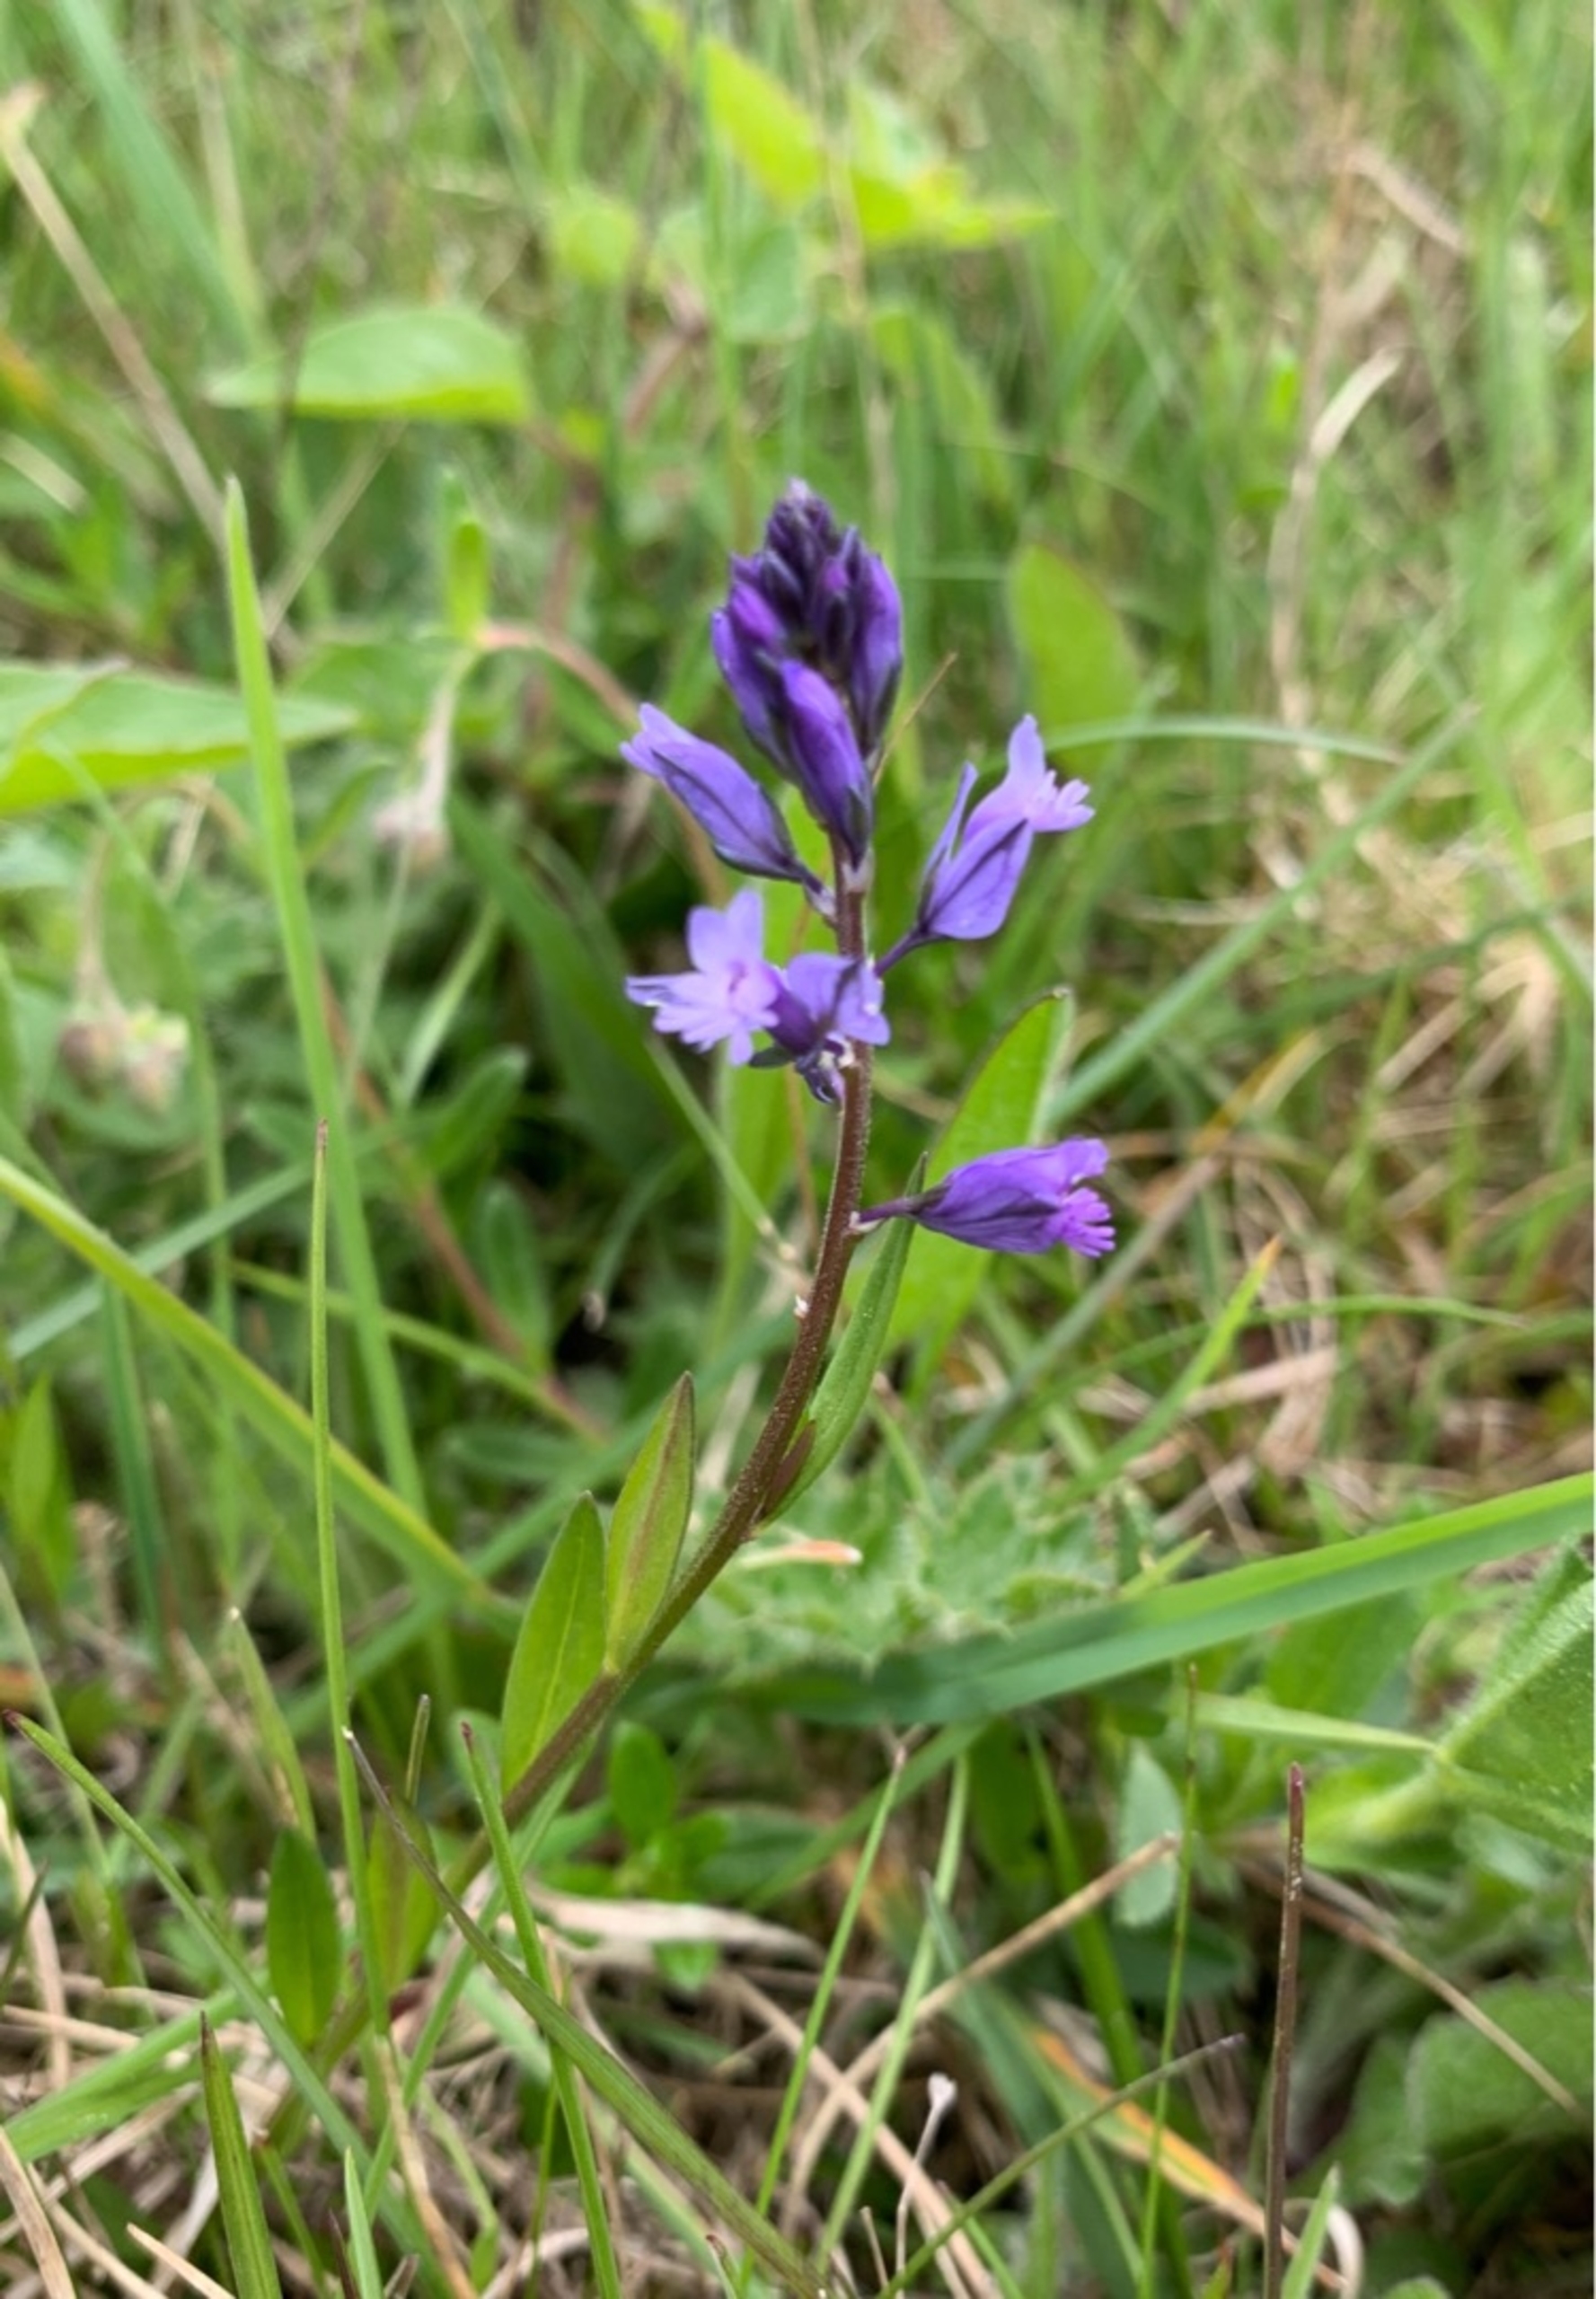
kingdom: Plantae
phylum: Tracheophyta
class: Magnoliopsida
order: Fabales
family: Polygalaceae
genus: Polygala
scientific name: Polygala vulgaris
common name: Almindelig mælkeurt
